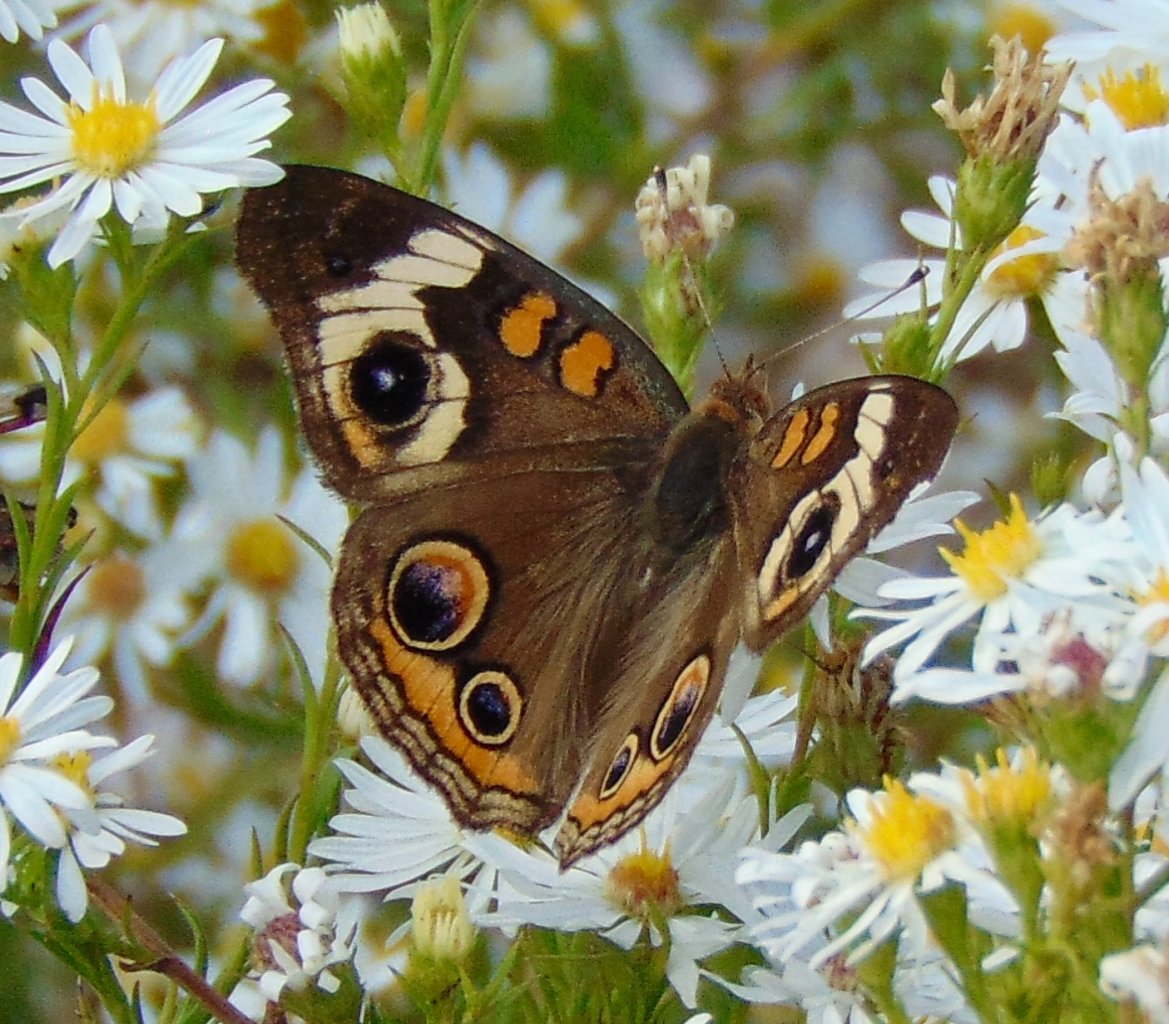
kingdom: Animalia
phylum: Arthropoda
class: Insecta
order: Lepidoptera
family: Nymphalidae
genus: Junonia
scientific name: Junonia coenia
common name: Common Buckeye
